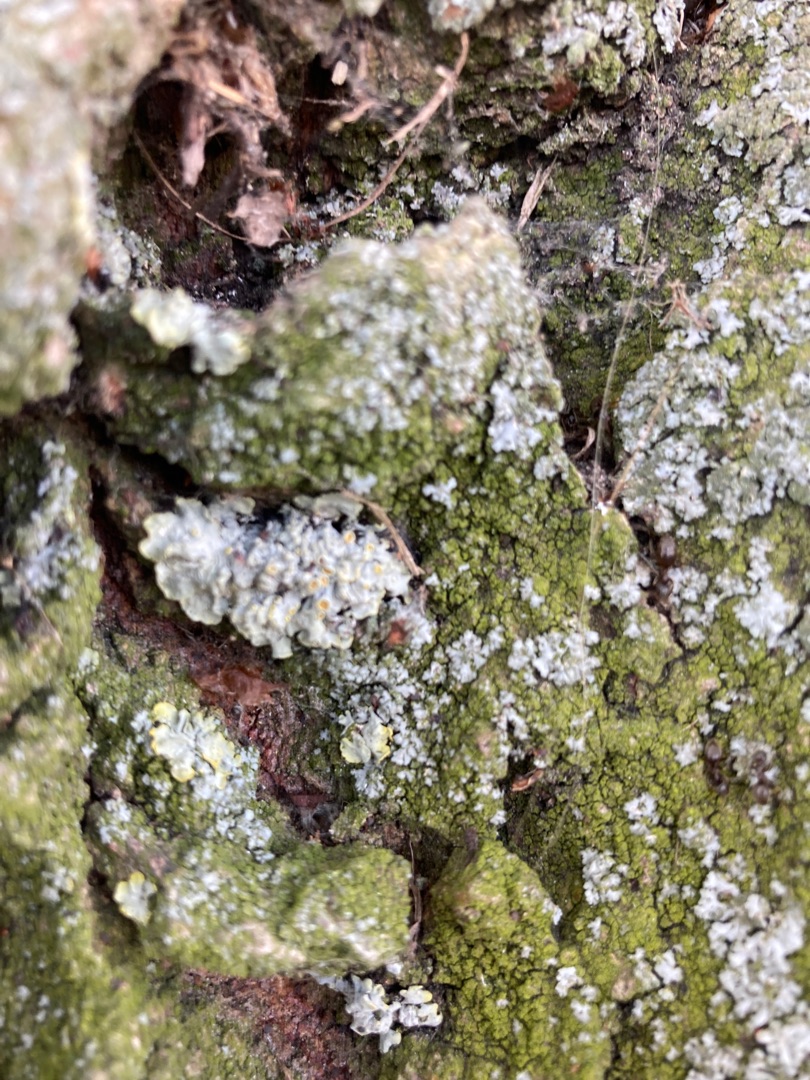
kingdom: Fungi
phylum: Ascomycota
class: Lecanoromycetes
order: Teloschistales
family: Teloschistaceae
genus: Xanthoria
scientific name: Xanthoria parietina
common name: Almindelig væggelav
